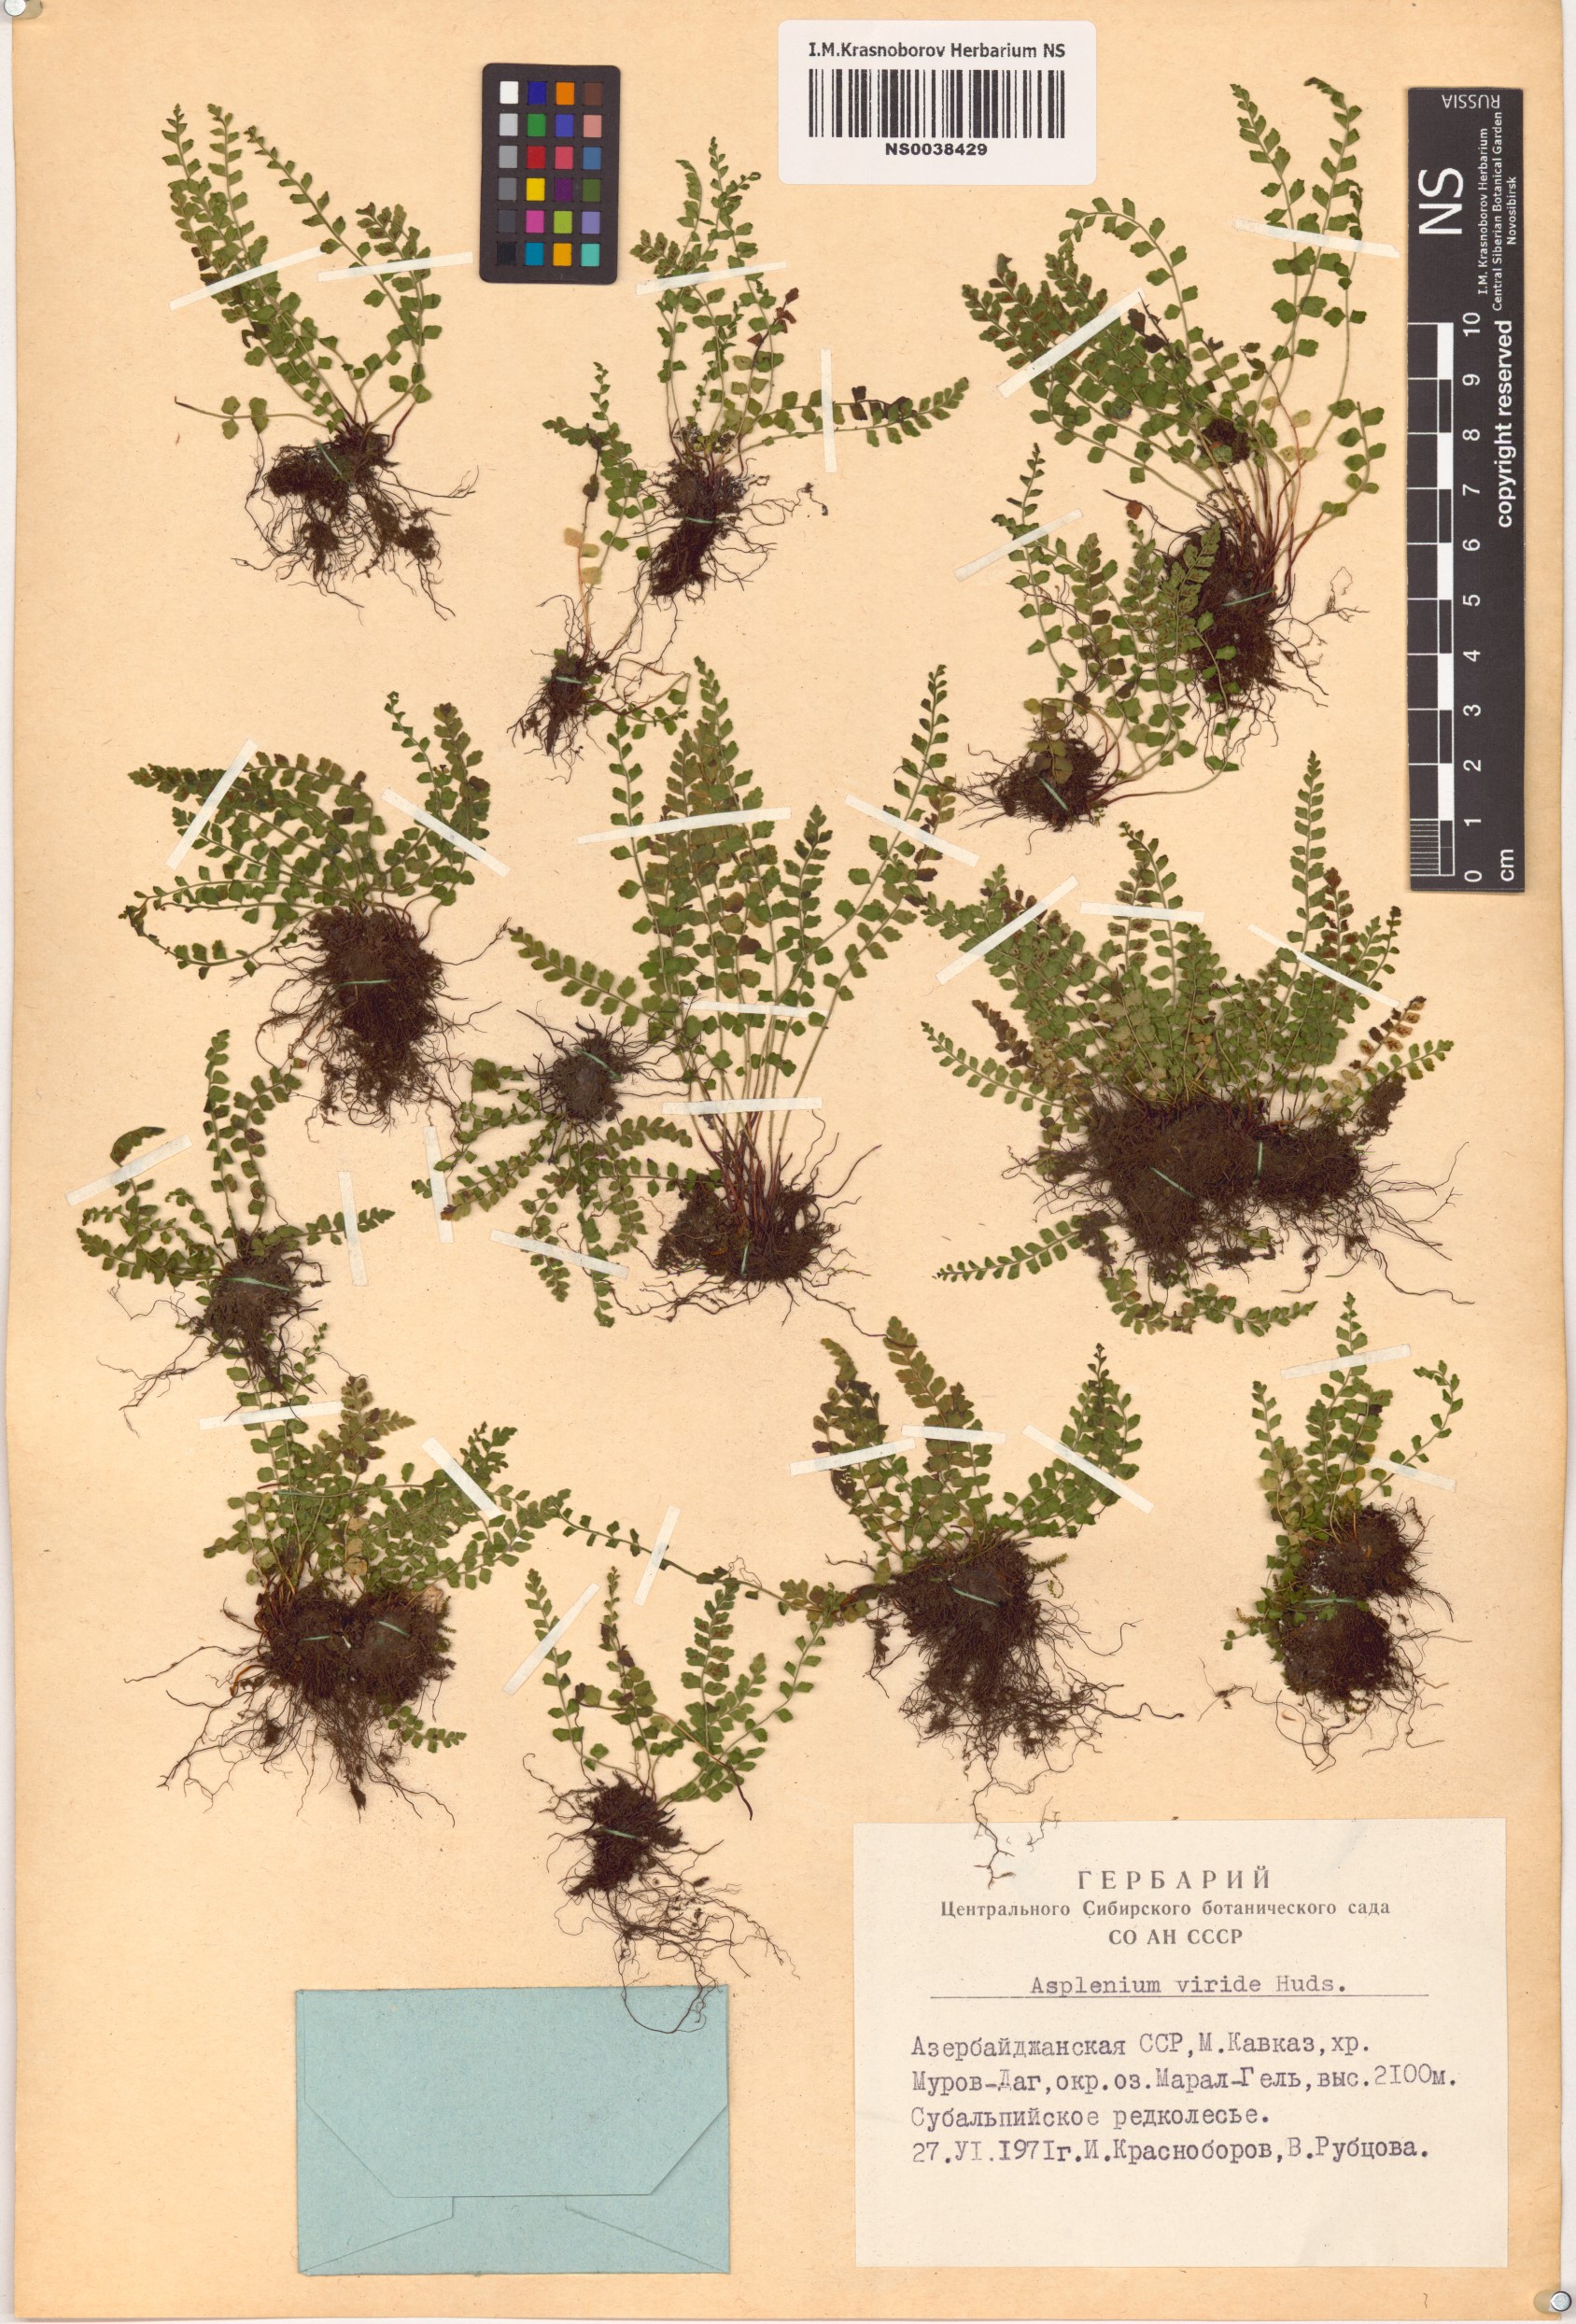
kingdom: Plantae
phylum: Tracheophyta
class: Polypodiopsida
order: Polypodiales
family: Aspleniaceae
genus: Asplenium
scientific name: Asplenium viride
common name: Green spleenwort
